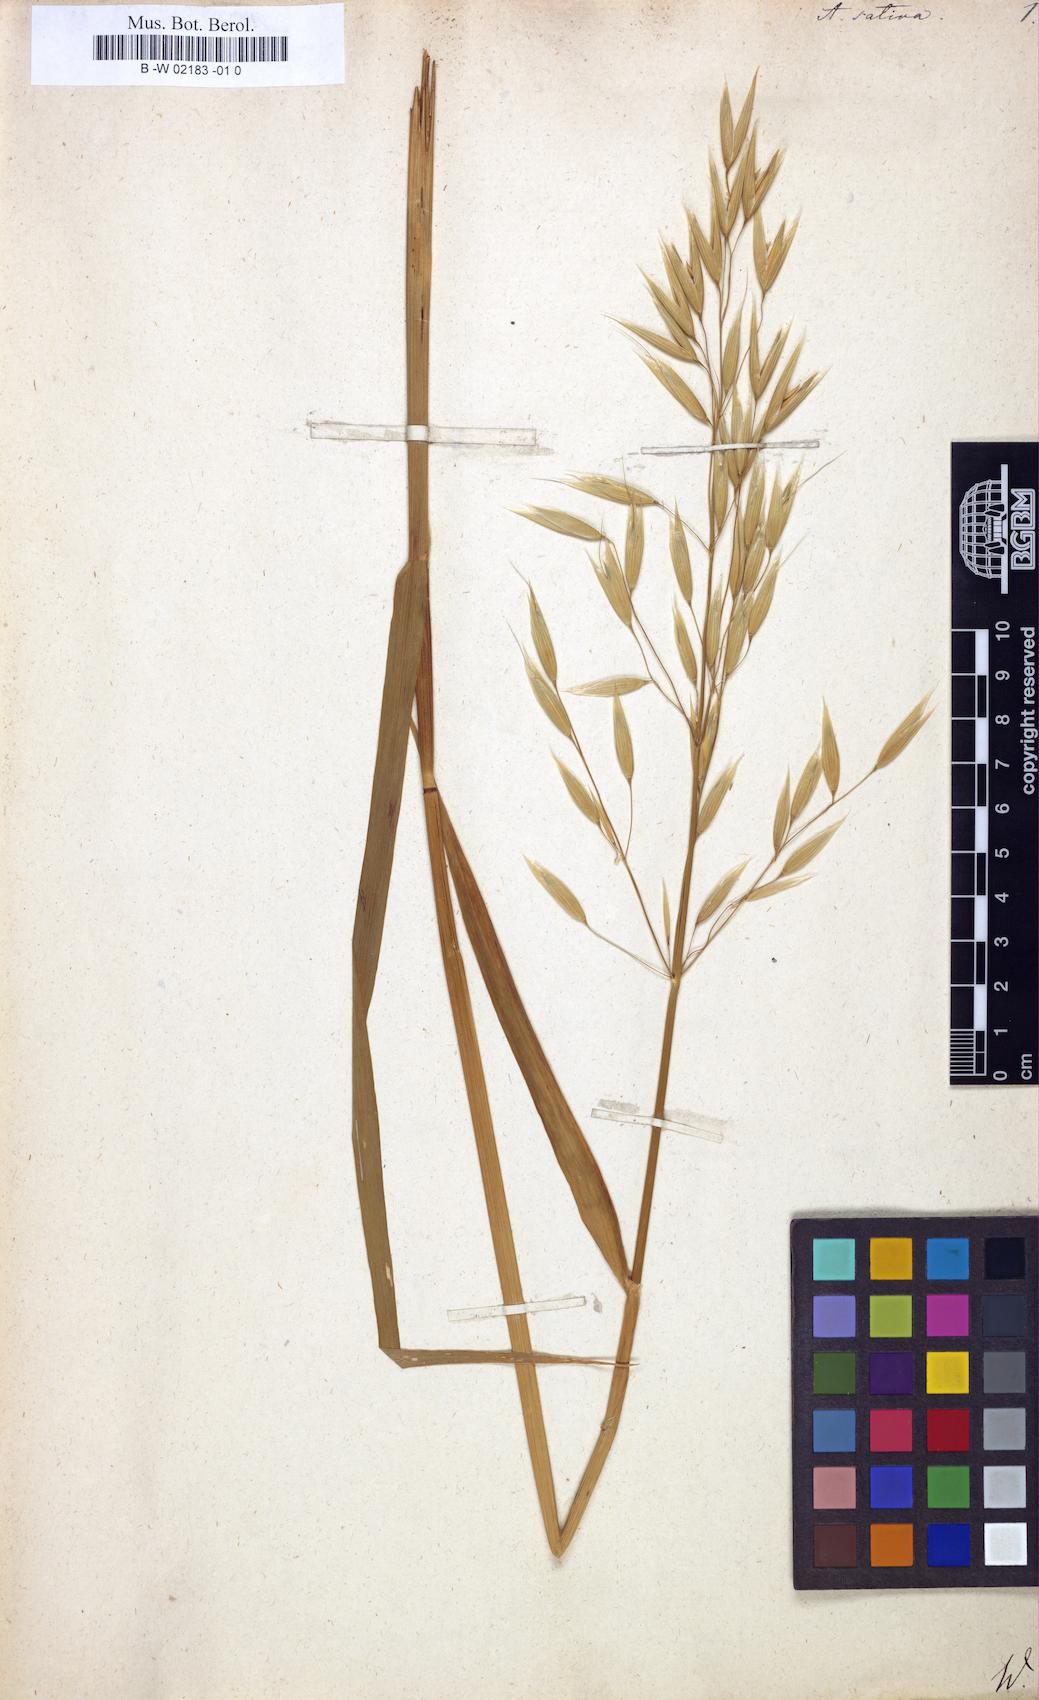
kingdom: Plantae
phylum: Tracheophyta
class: Liliopsida
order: Poales
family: Poaceae
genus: Avena
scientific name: Avena sativa
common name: Oat
